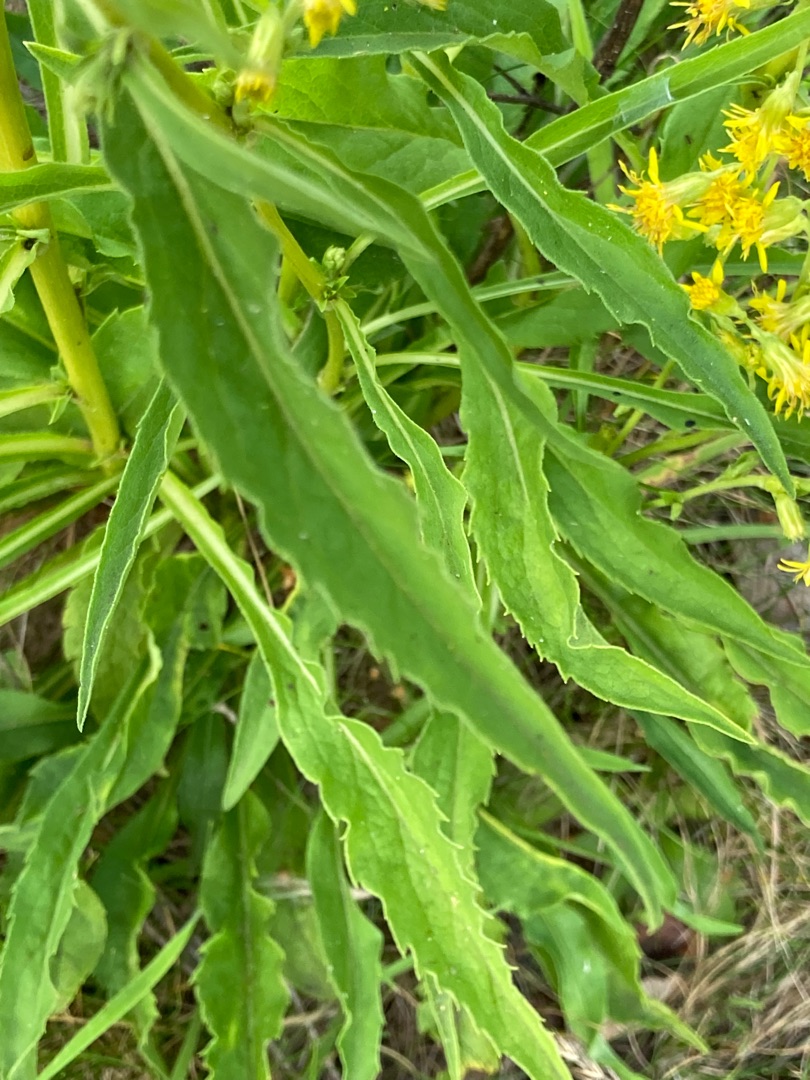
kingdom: Plantae
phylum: Tracheophyta
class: Magnoliopsida
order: Asterales
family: Asteraceae
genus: Solidago
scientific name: Solidago virgaurea
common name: Almindelig gyldenris
